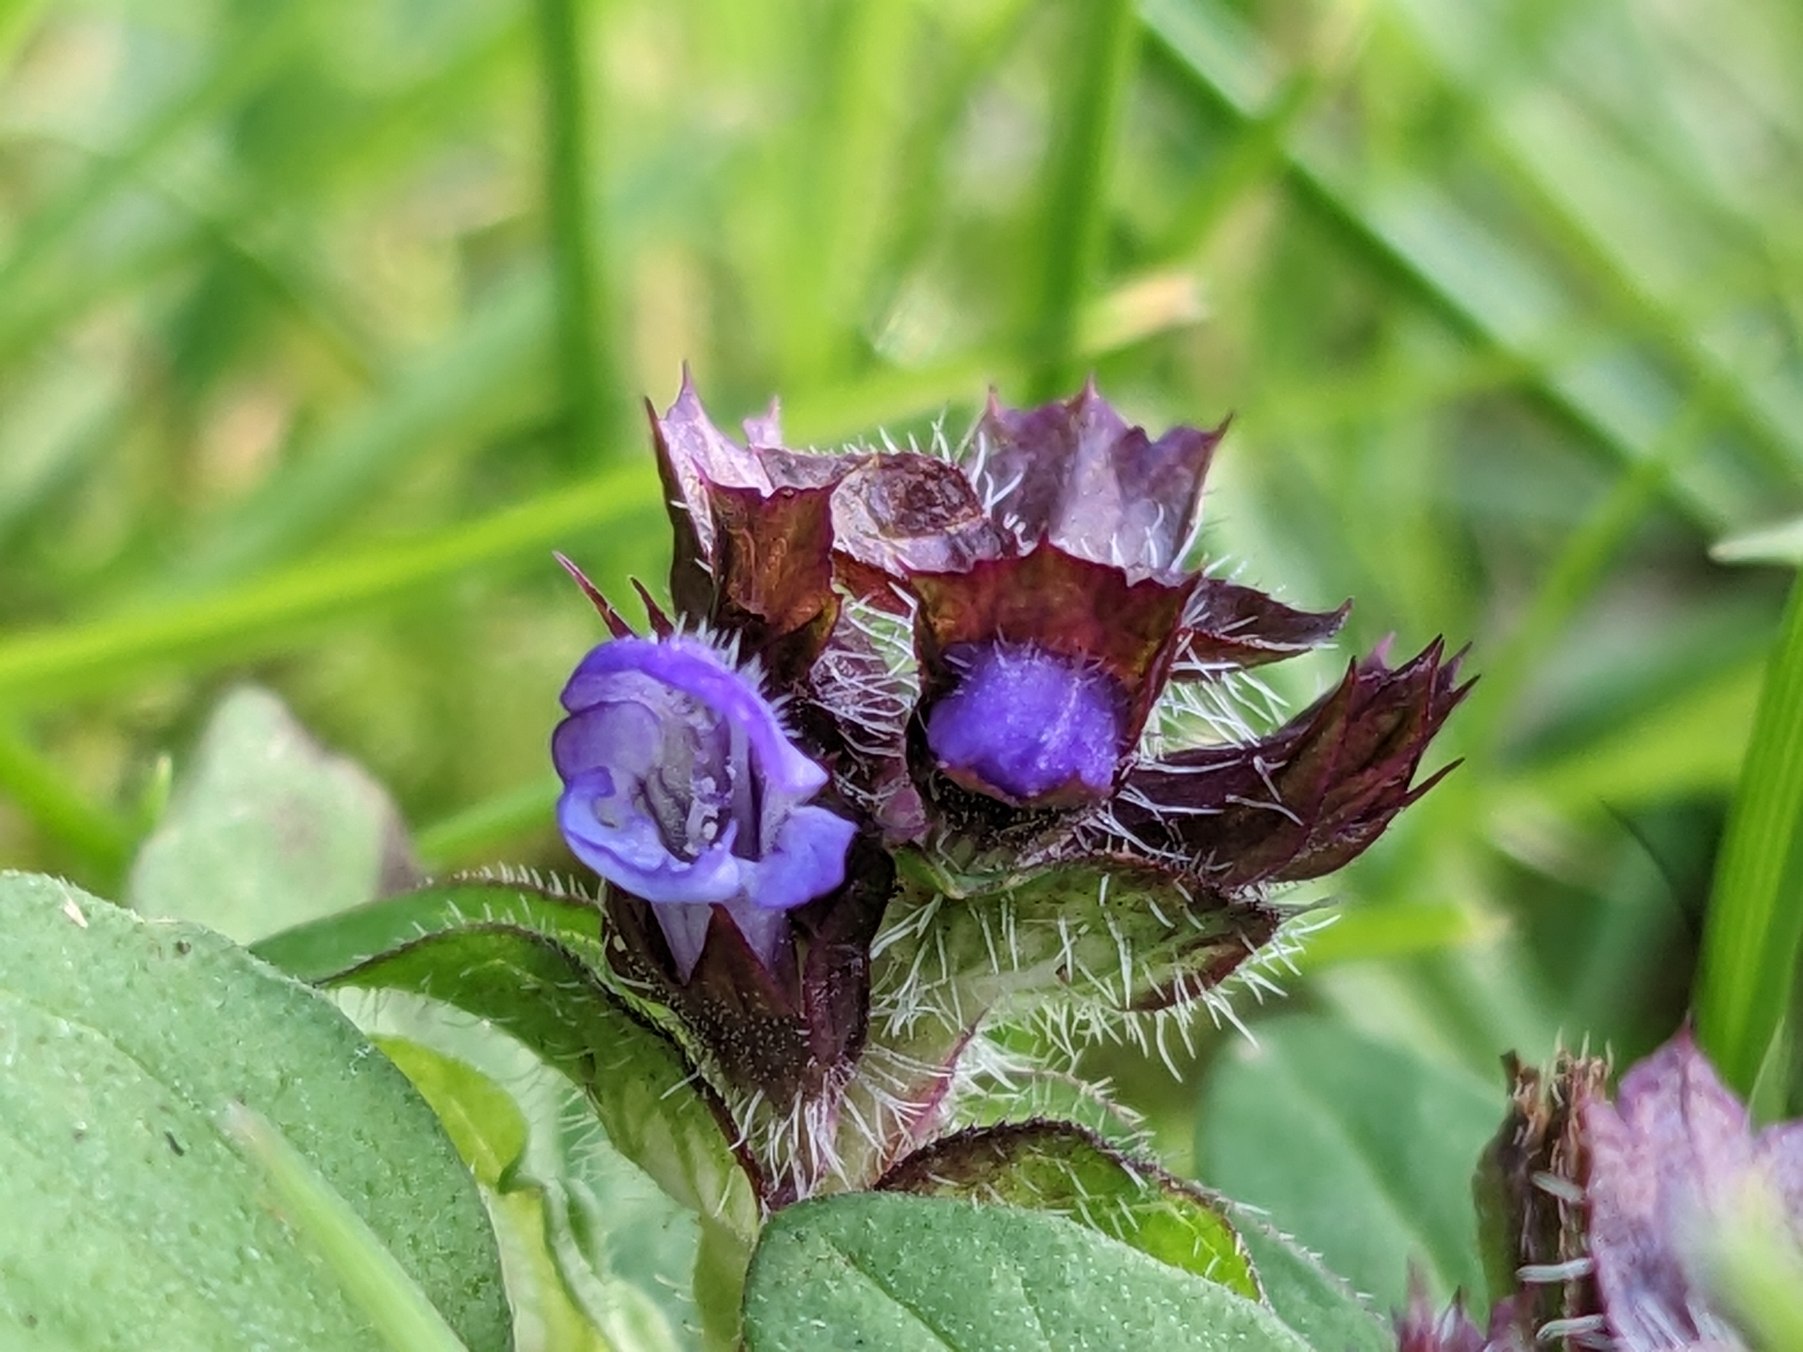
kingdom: Plantae
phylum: Tracheophyta
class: Magnoliopsida
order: Lamiales
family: Lamiaceae
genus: Prunella
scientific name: Prunella vulgaris
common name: Almindelig brunelle
